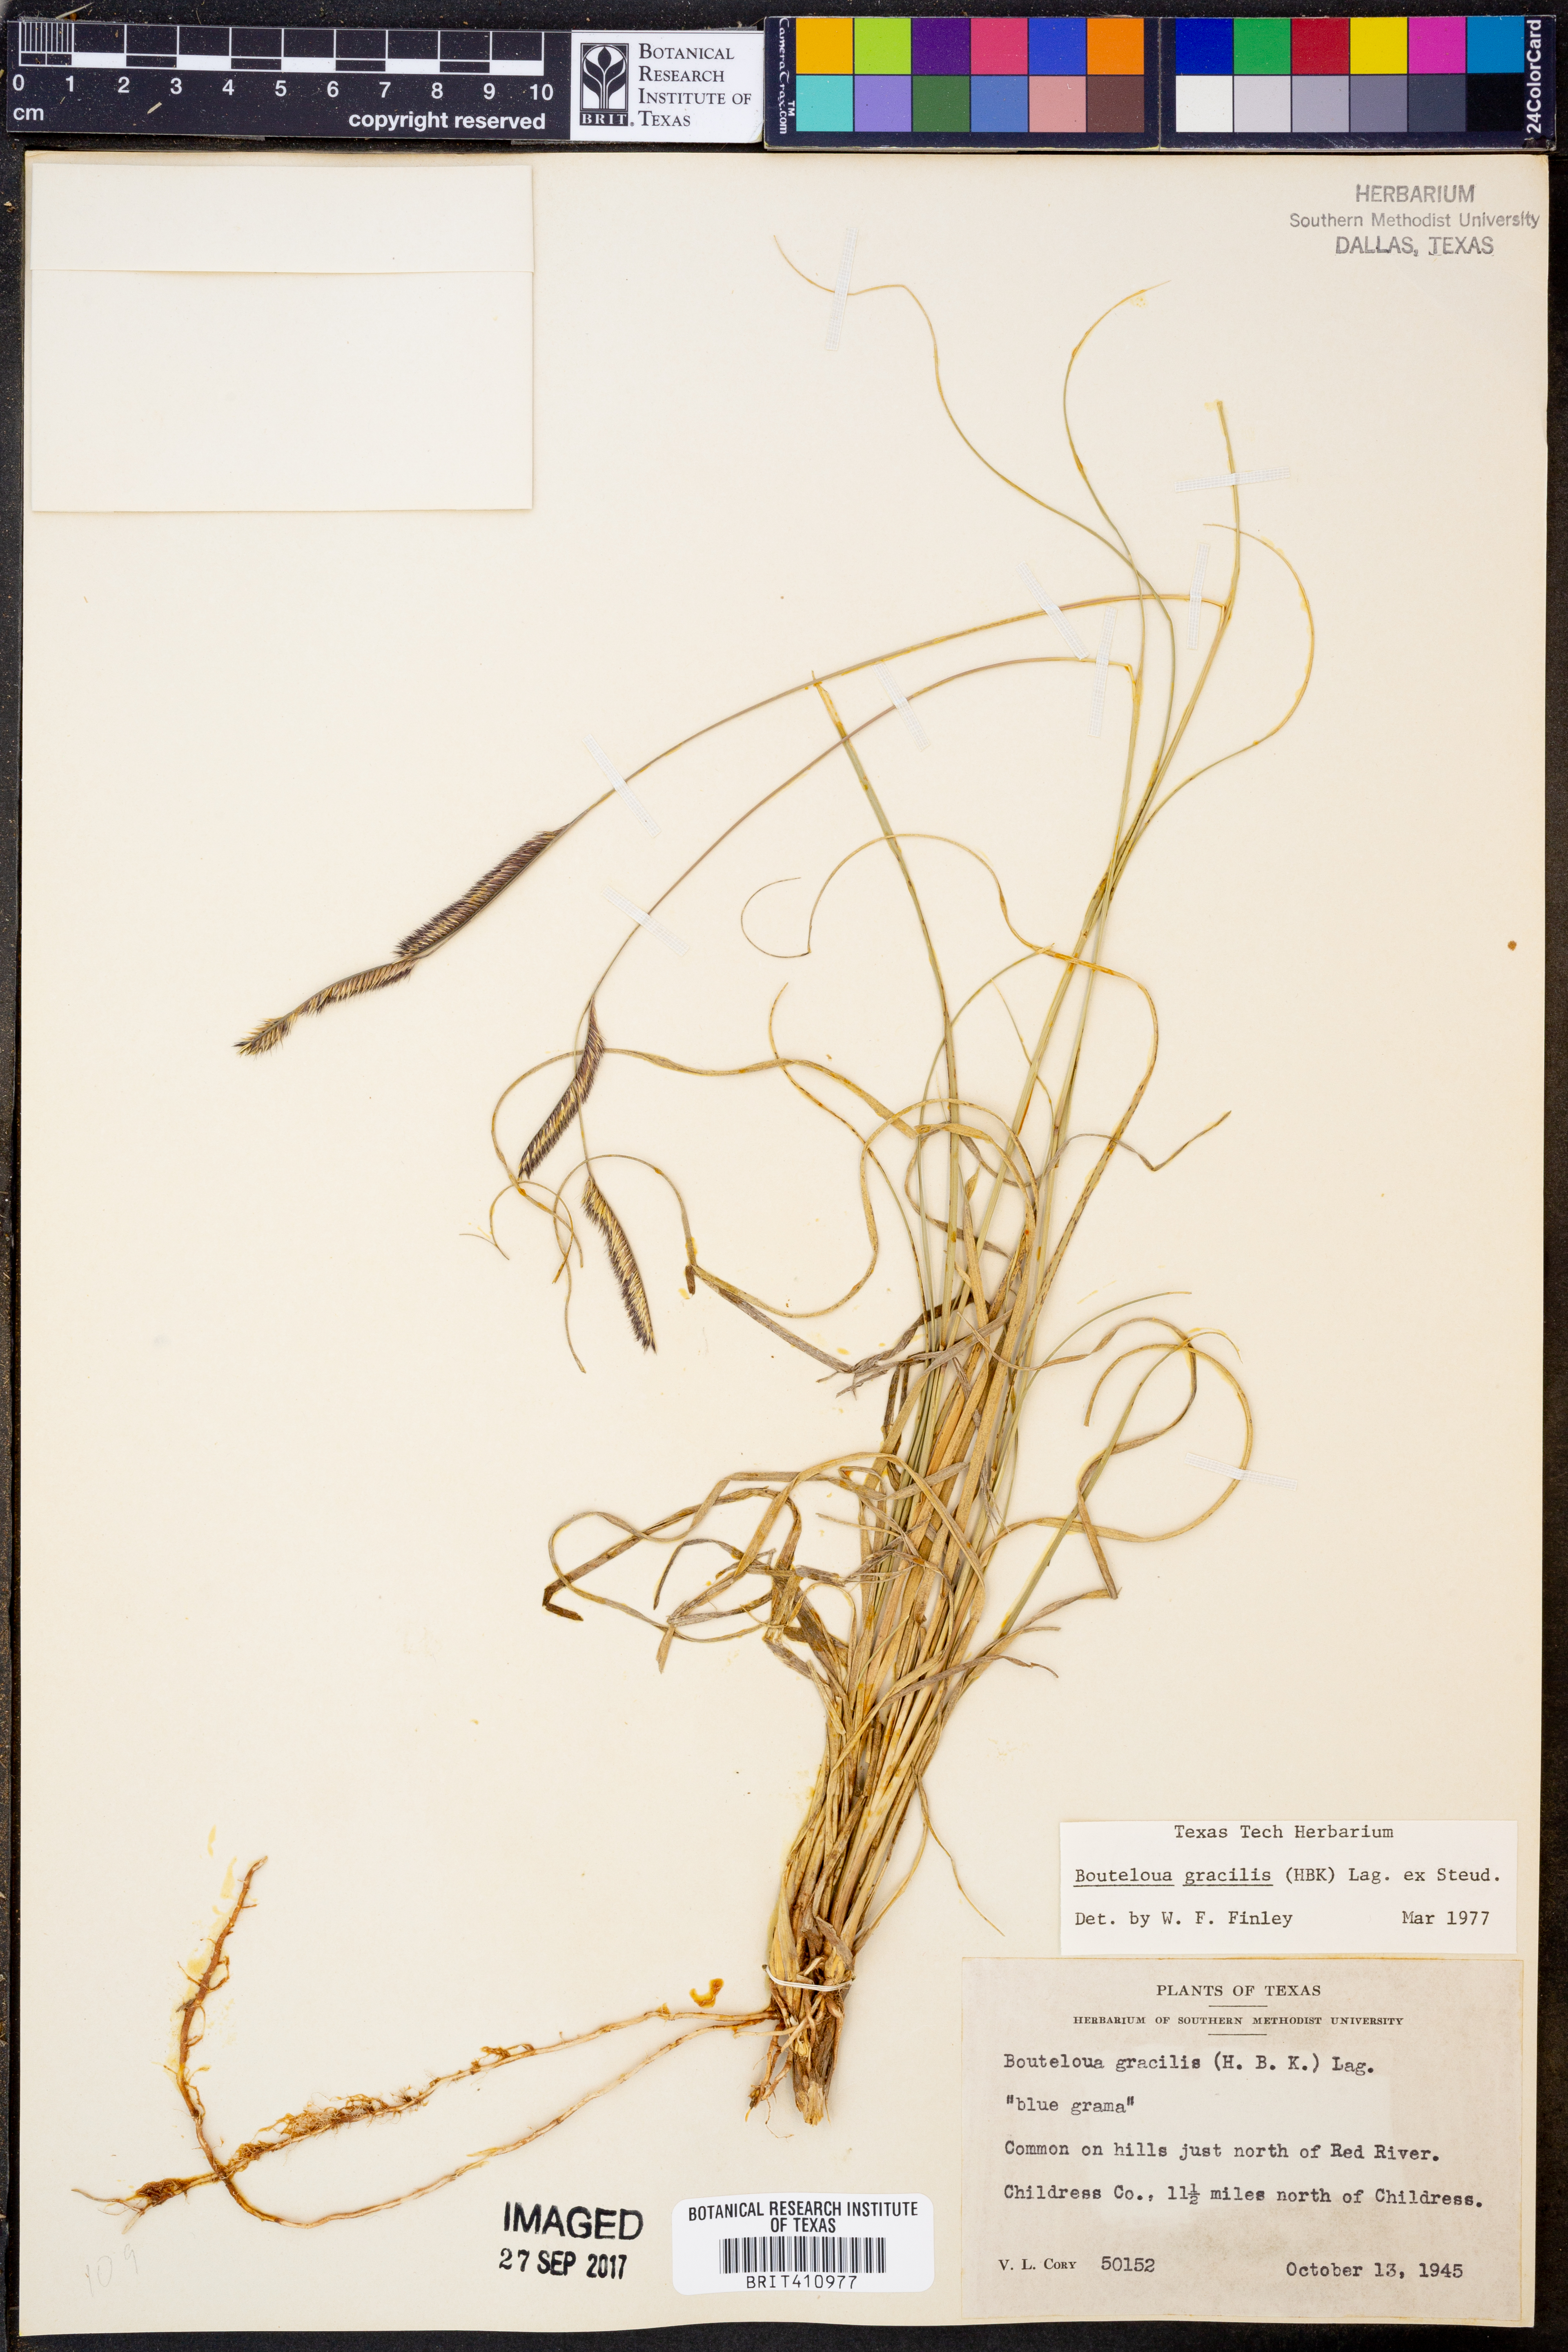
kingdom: Plantae
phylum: Tracheophyta
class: Liliopsida
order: Poales
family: Poaceae
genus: Bouteloua
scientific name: Bouteloua gracilis
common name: Blue grama
